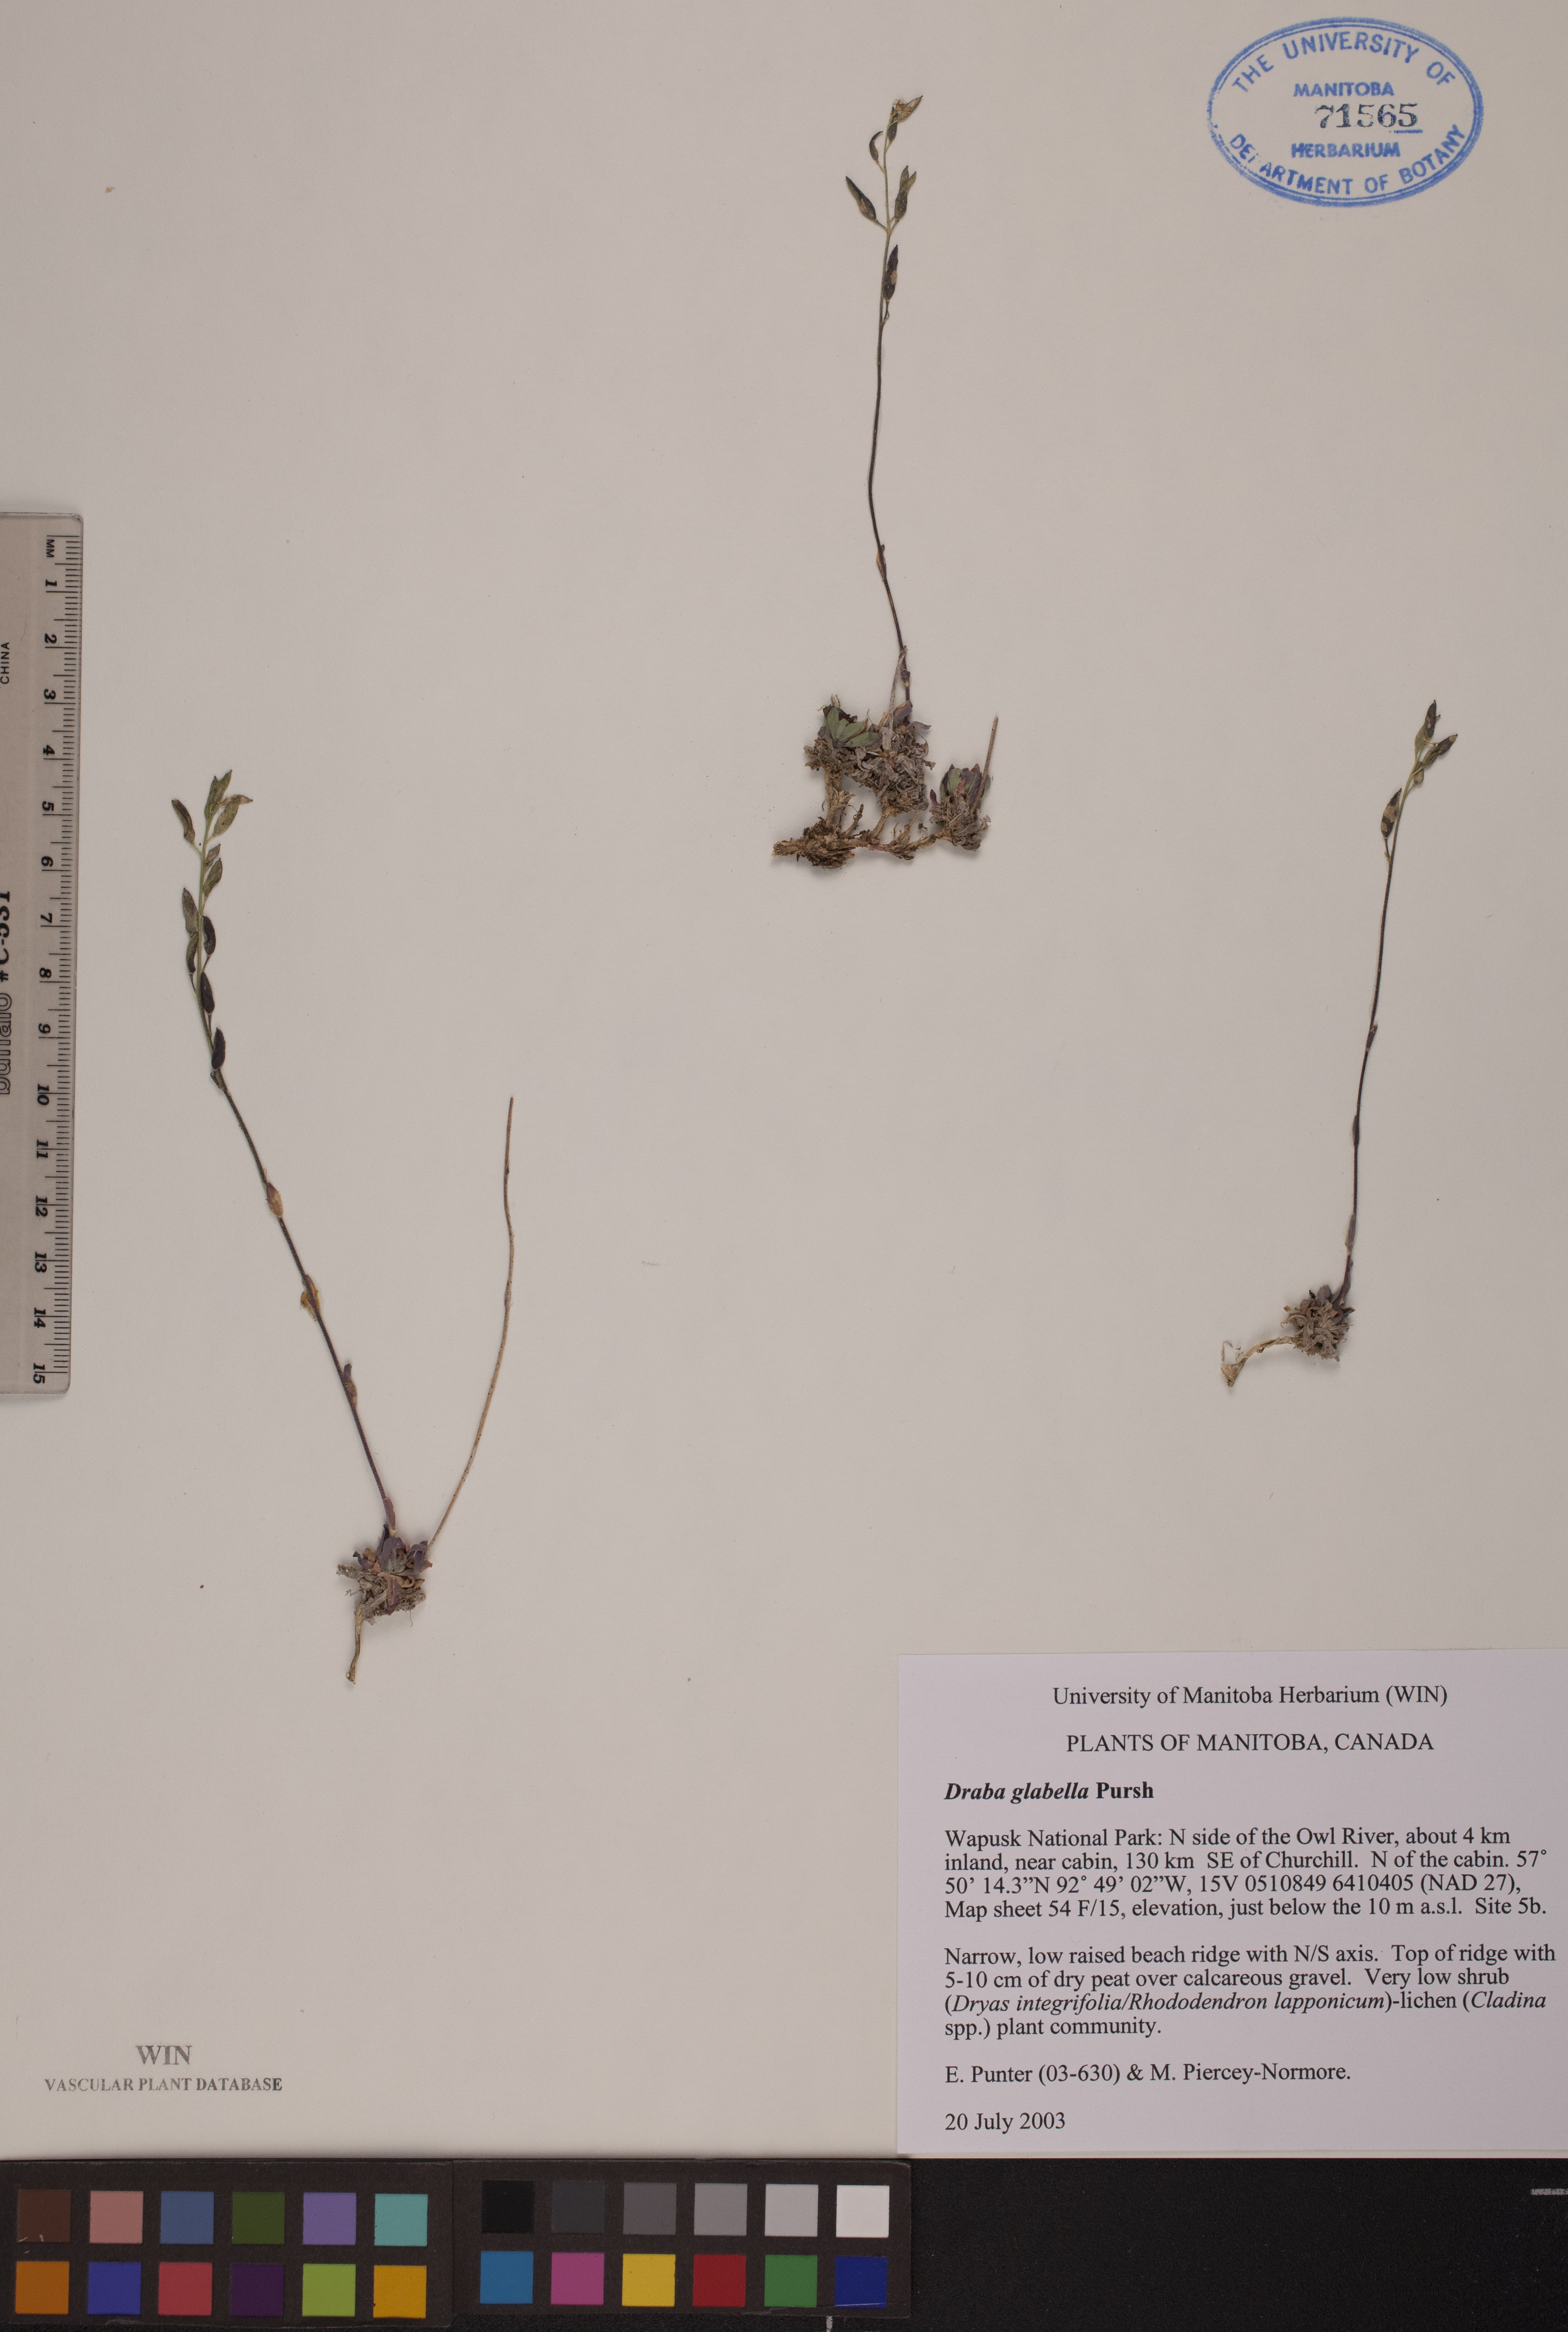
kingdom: Plantae
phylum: Tracheophyta
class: Magnoliopsida
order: Brassicales
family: Brassicaceae
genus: Draba
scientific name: Draba glabella
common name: Glaucous draba
